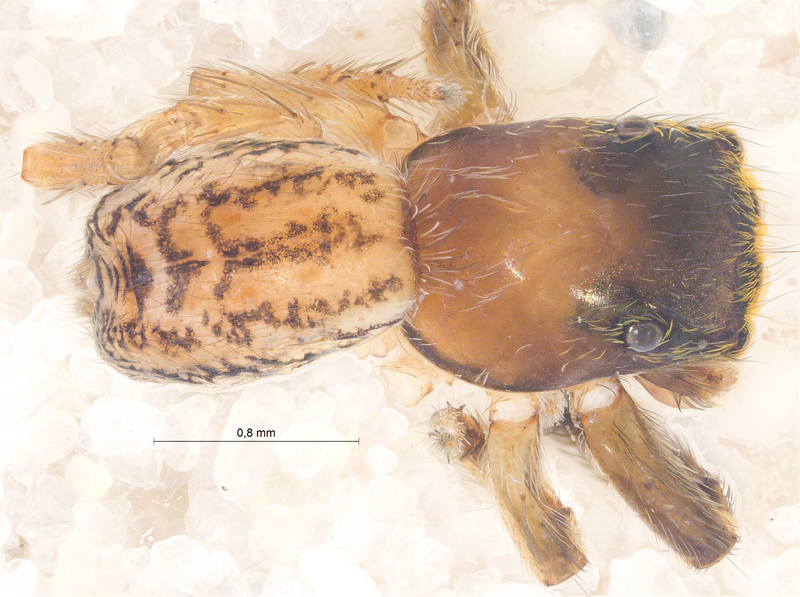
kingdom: Animalia
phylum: Arthropoda
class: Arachnida
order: Araneae
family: Salticidae
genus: Euophrys
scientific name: Euophrys frontalis
